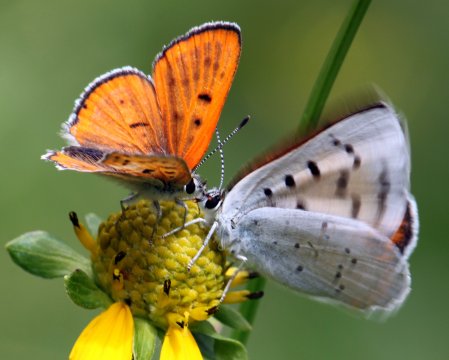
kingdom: Animalia
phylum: Arthropoda
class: Insecta
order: Lepidoptera
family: Sesiidae
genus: Sesia
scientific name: Sesia Lycaena rubidus
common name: Ruddy Copper
